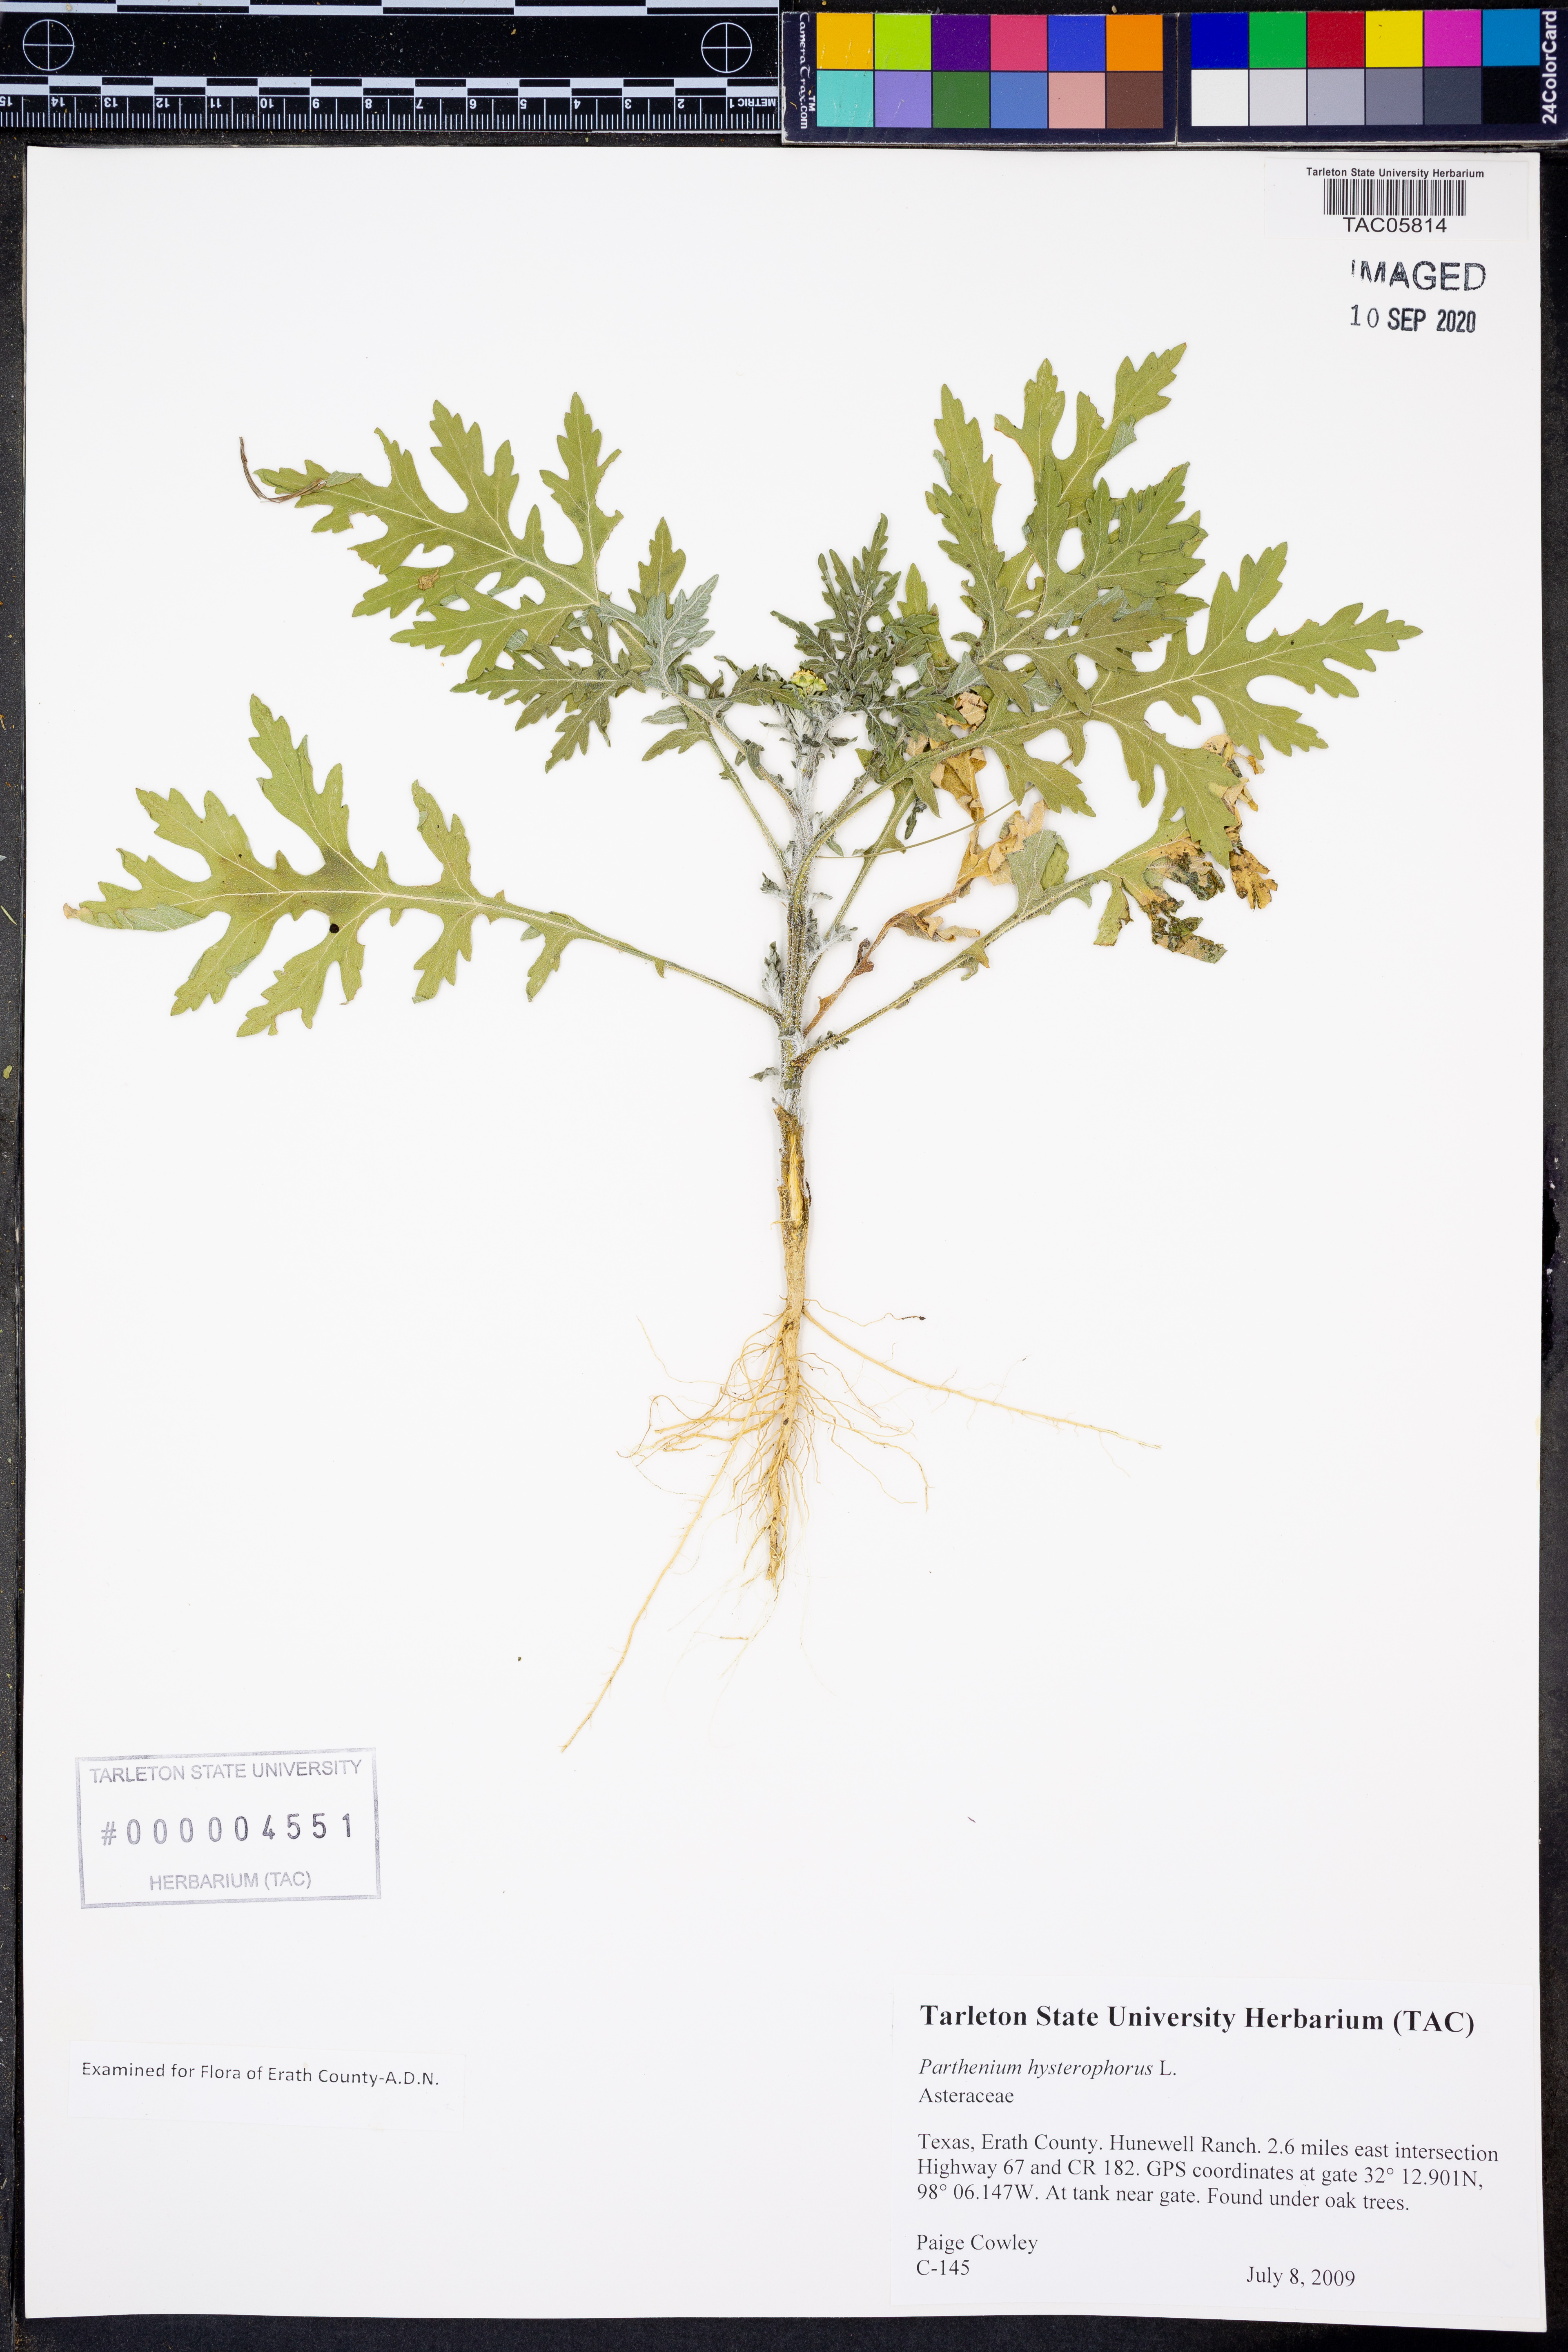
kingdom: Plantae
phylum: Tracheophyta
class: Magnoliopsida
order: Asterales
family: Asteraceae
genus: Parthenium
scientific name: Parthenium hysterophorus
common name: Santa maria feverfew
